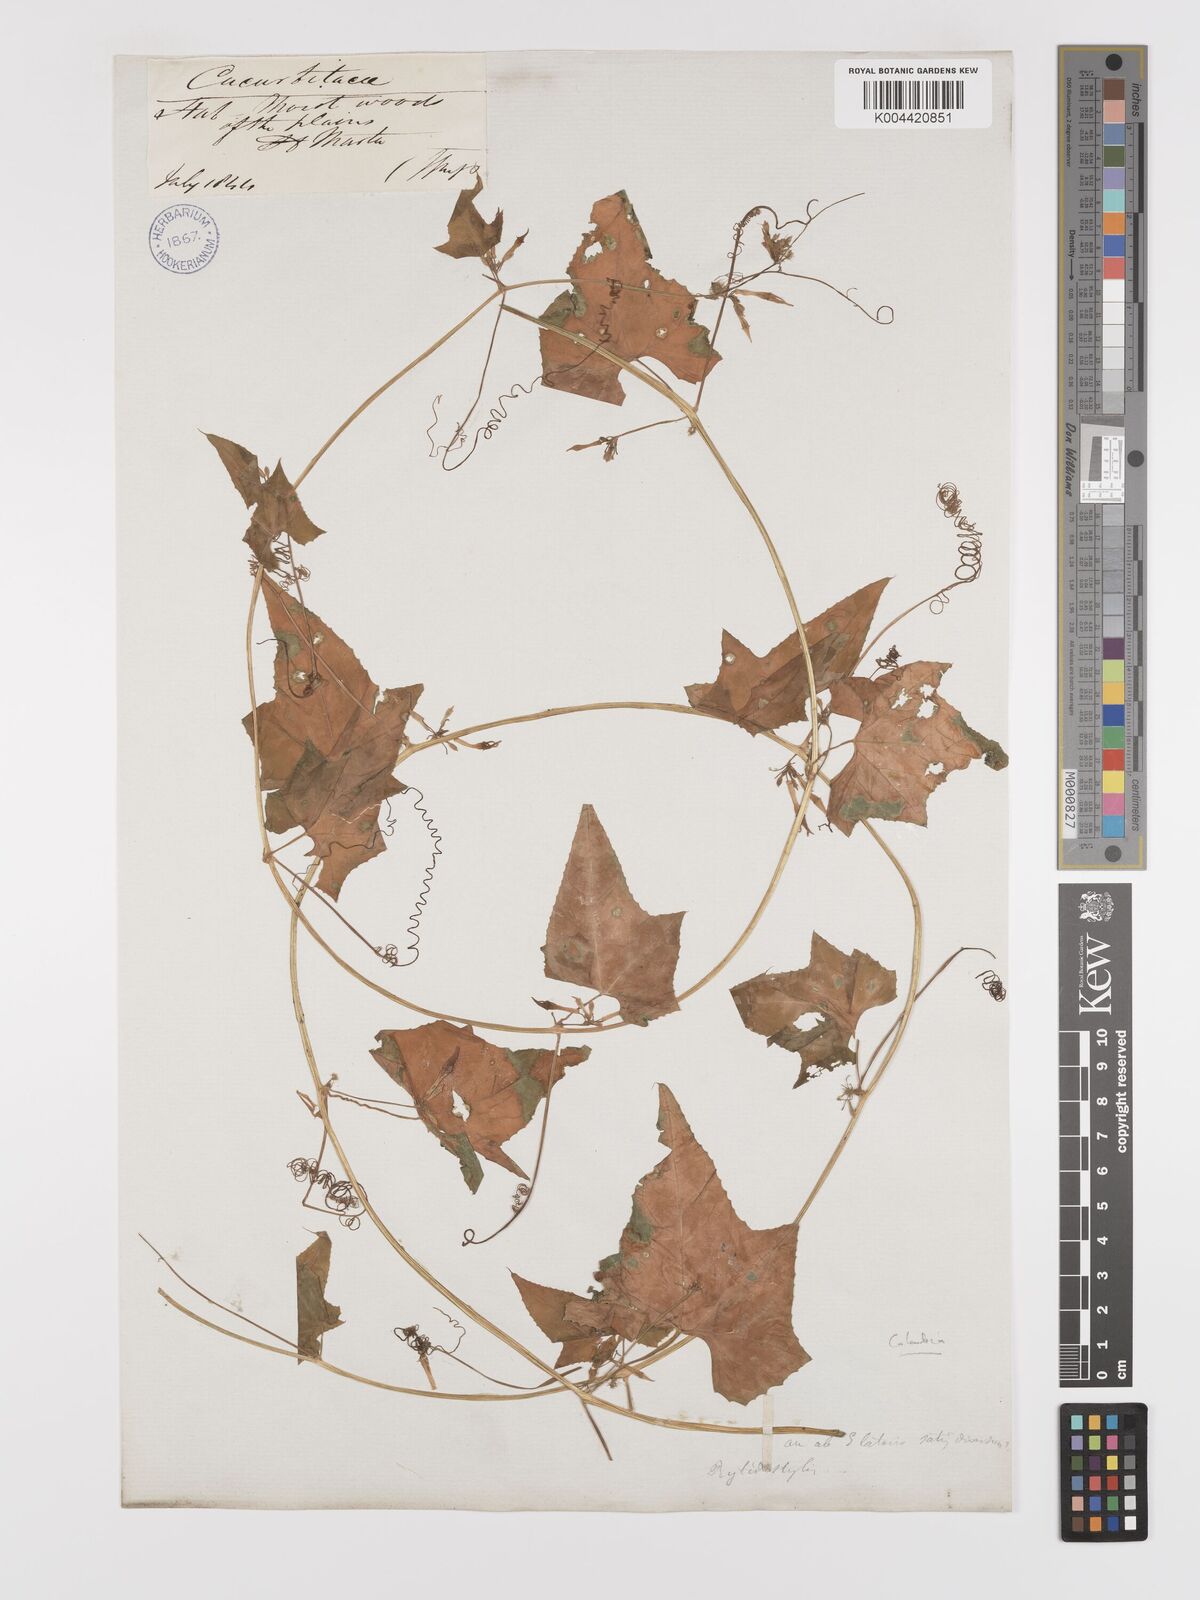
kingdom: Plantae
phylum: Tracheophyta
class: Magnoliopsida
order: Cucurbitales
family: Cucurbitaceae
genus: Cyclanthera
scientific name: Cyclanthera carthagenensis
